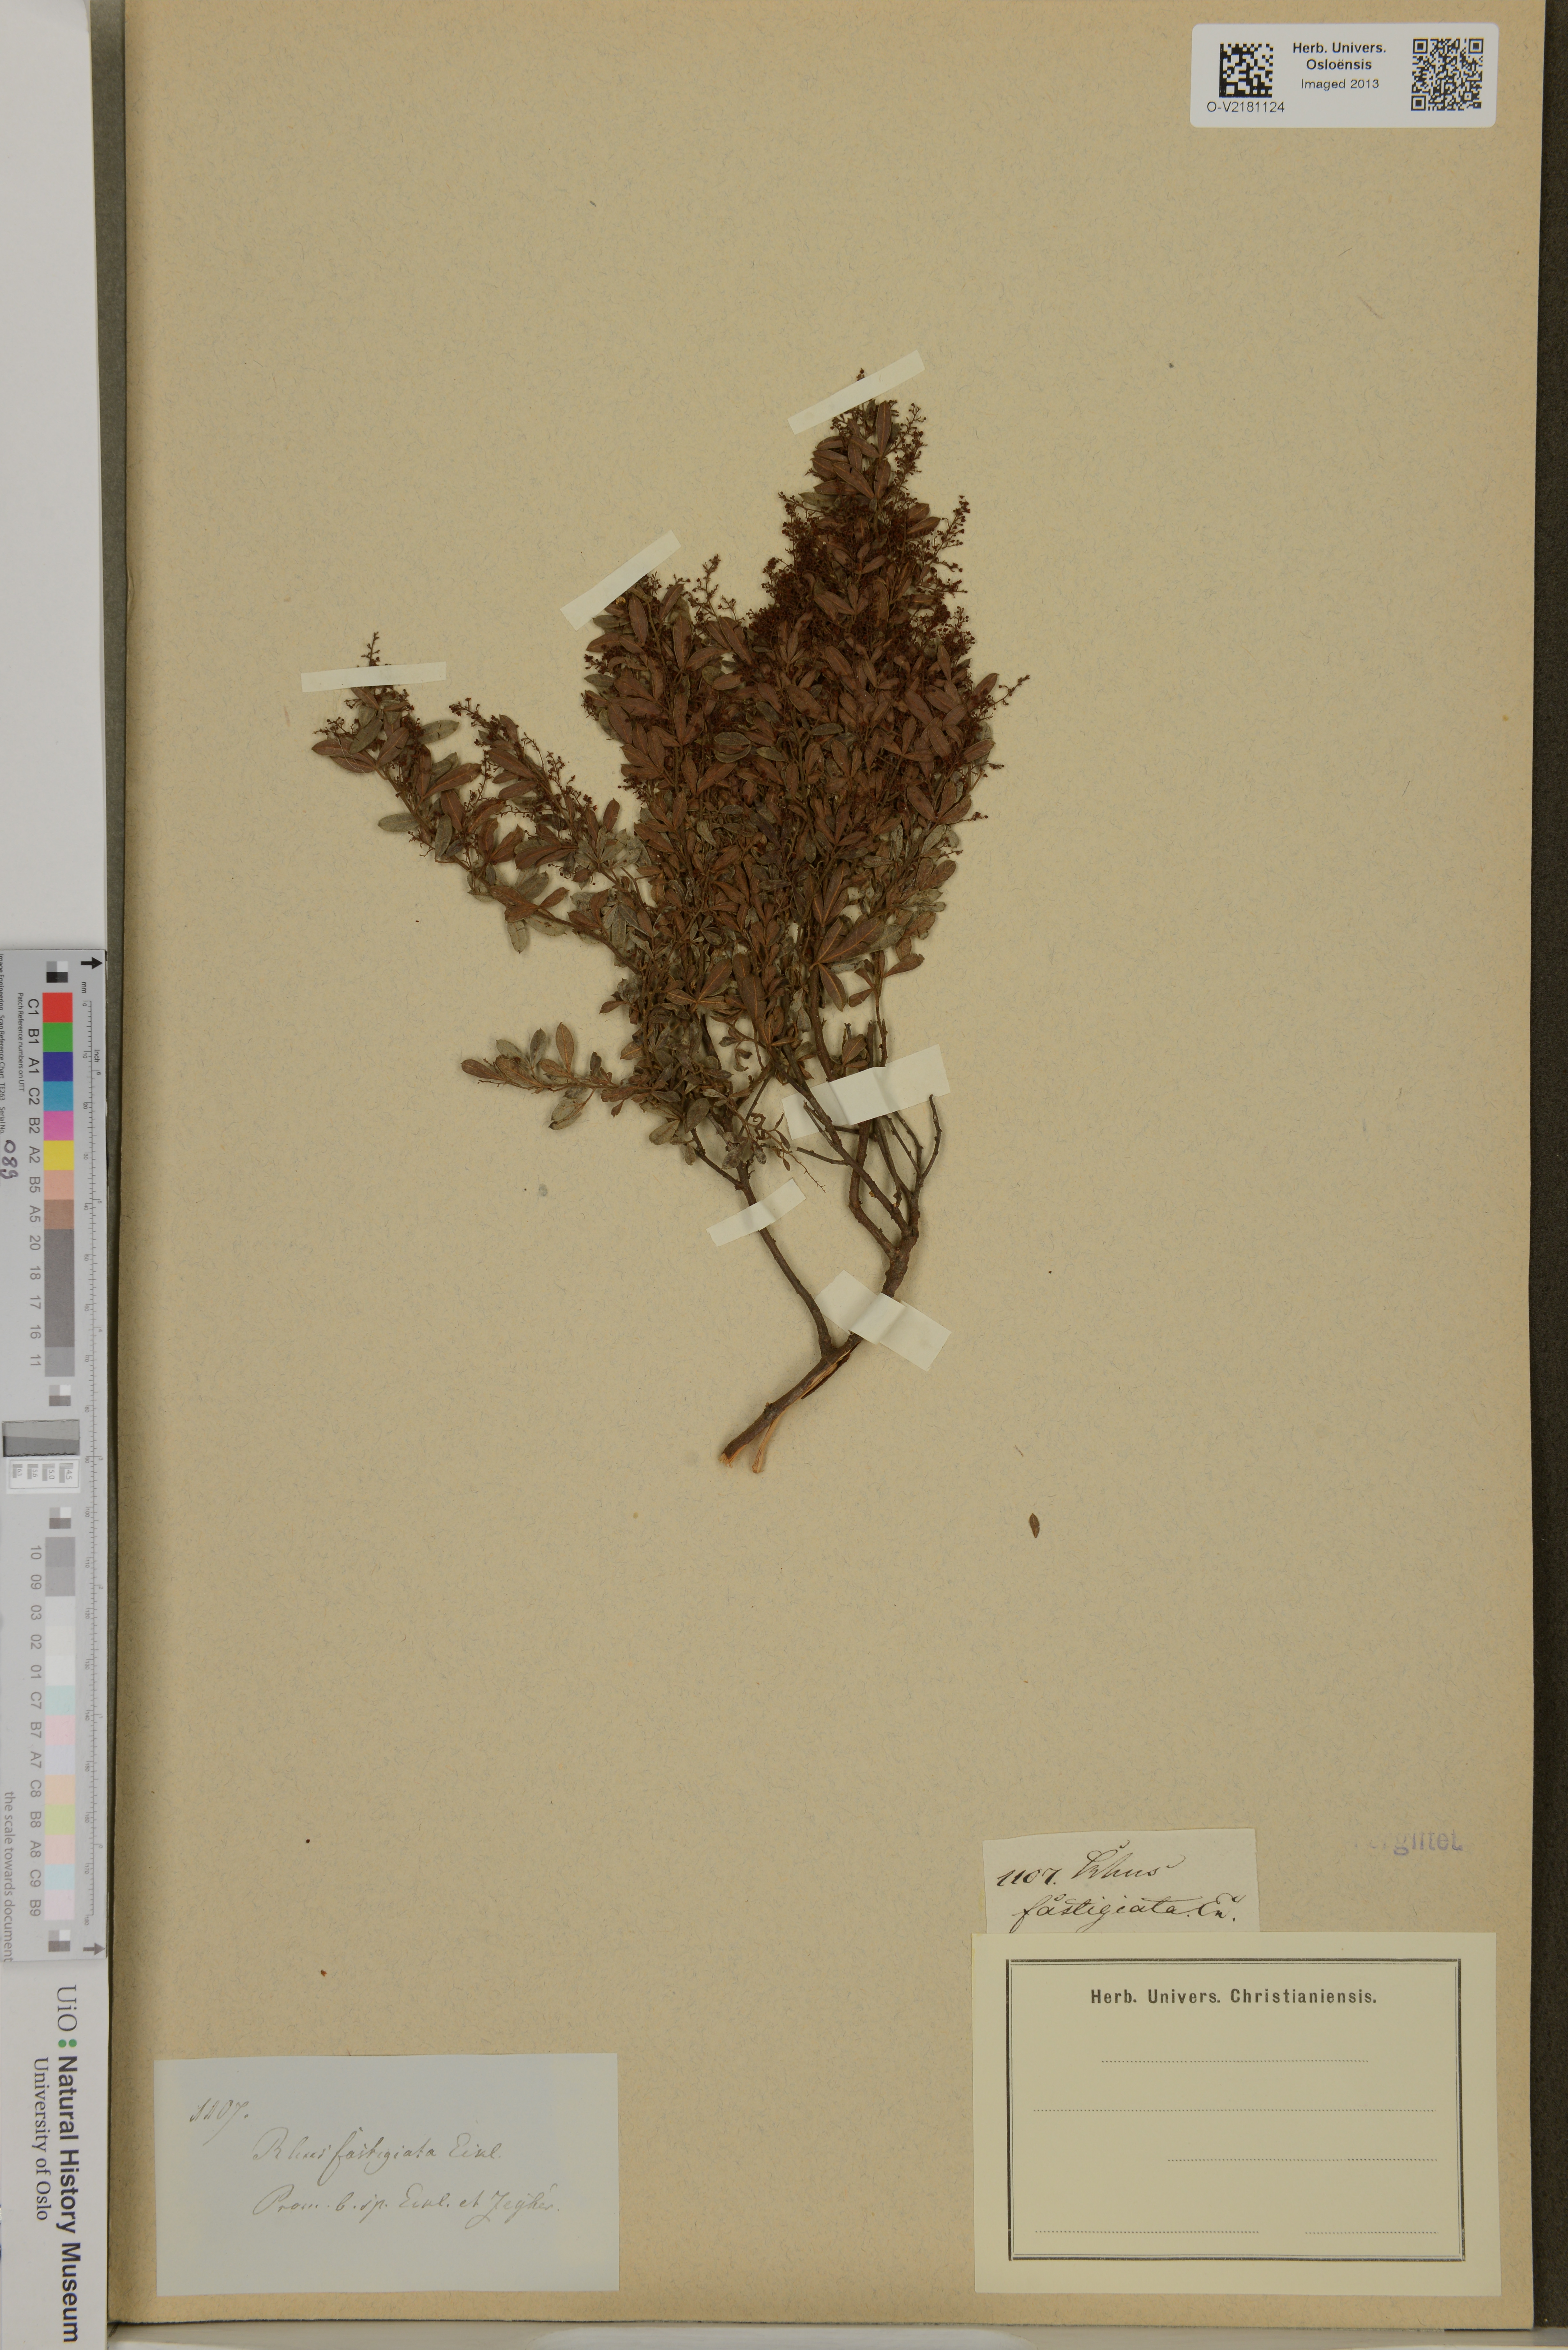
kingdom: Plantae
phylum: Tracheophyta
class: Magnoliopsida
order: Sapindales
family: Anacardiaceae
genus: Searsia
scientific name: Searsia fastigiata
